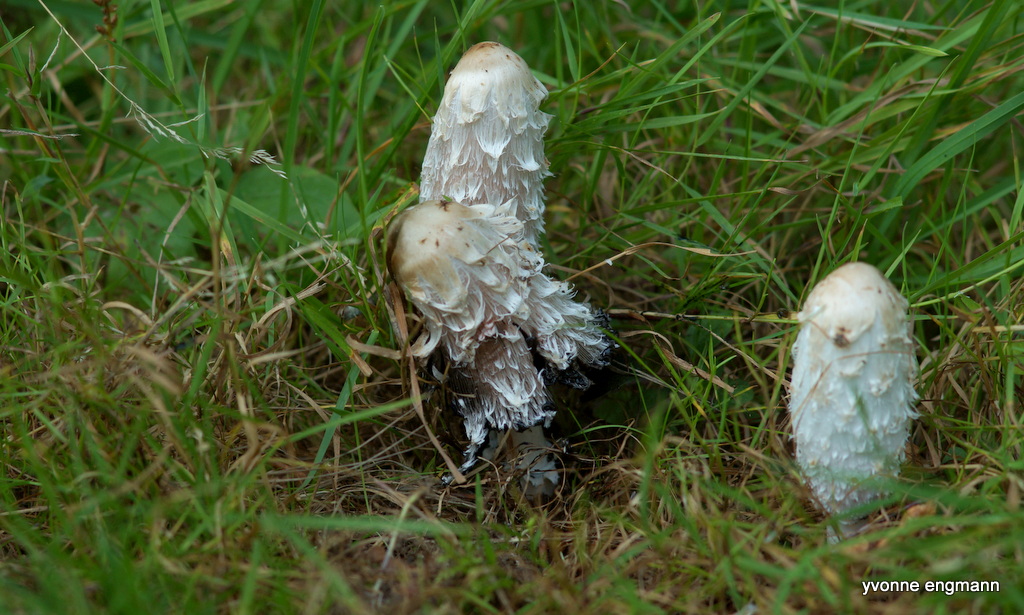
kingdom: Fungi
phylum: Basidiomycota
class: Agaricomycetes
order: Agaricales
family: Agaricaceae
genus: Coprinus
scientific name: Coprinus comatus
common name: stor parykhat
